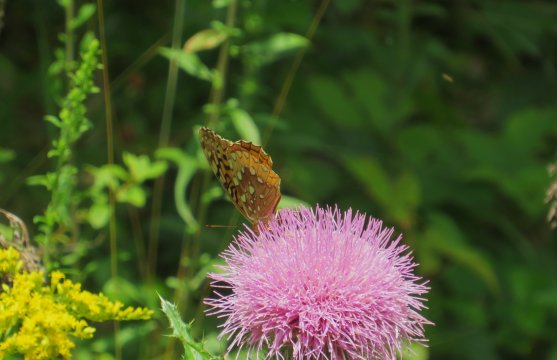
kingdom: Animalia
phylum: Arthropoda
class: Insecta
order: Lepidoptera
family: Nymphalidae
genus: Speyeria
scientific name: Speyeria cybele
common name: Great Spangled Fritillary
